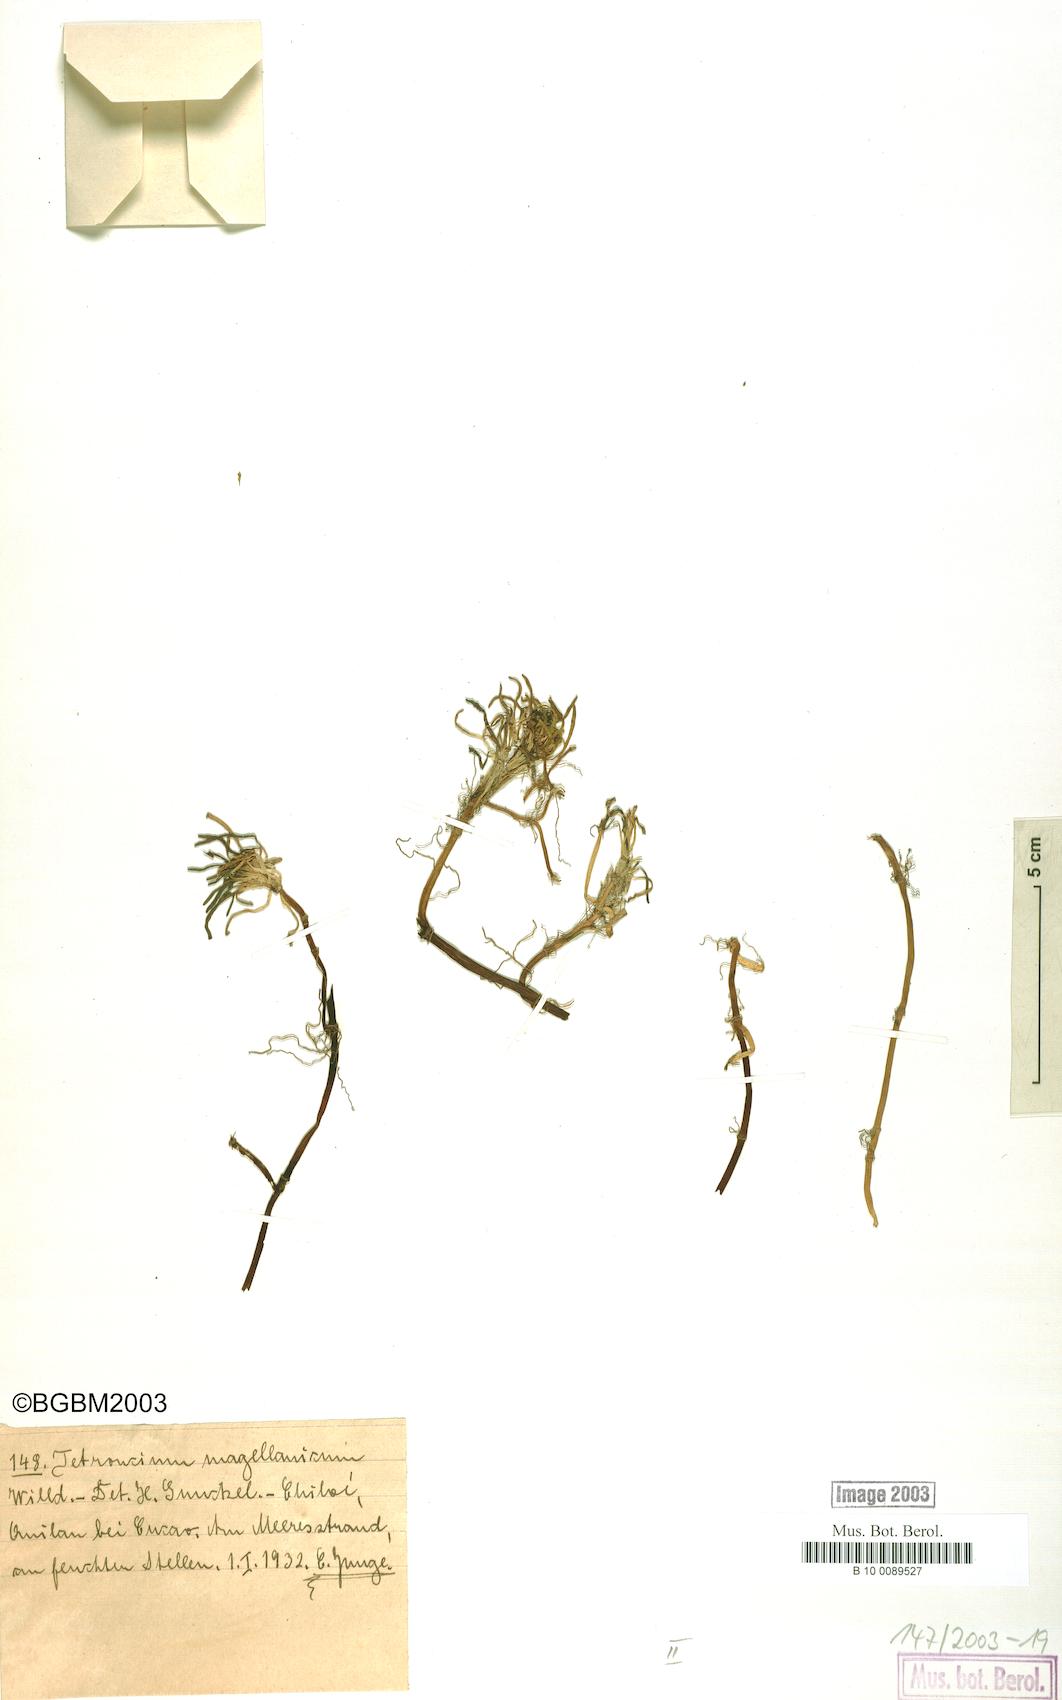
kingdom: Plantae
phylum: Tracheophyta
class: Liliopsida
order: Alismatales
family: Juncaginaceae
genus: Tetroncium
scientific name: Tetroncium magellanicum
